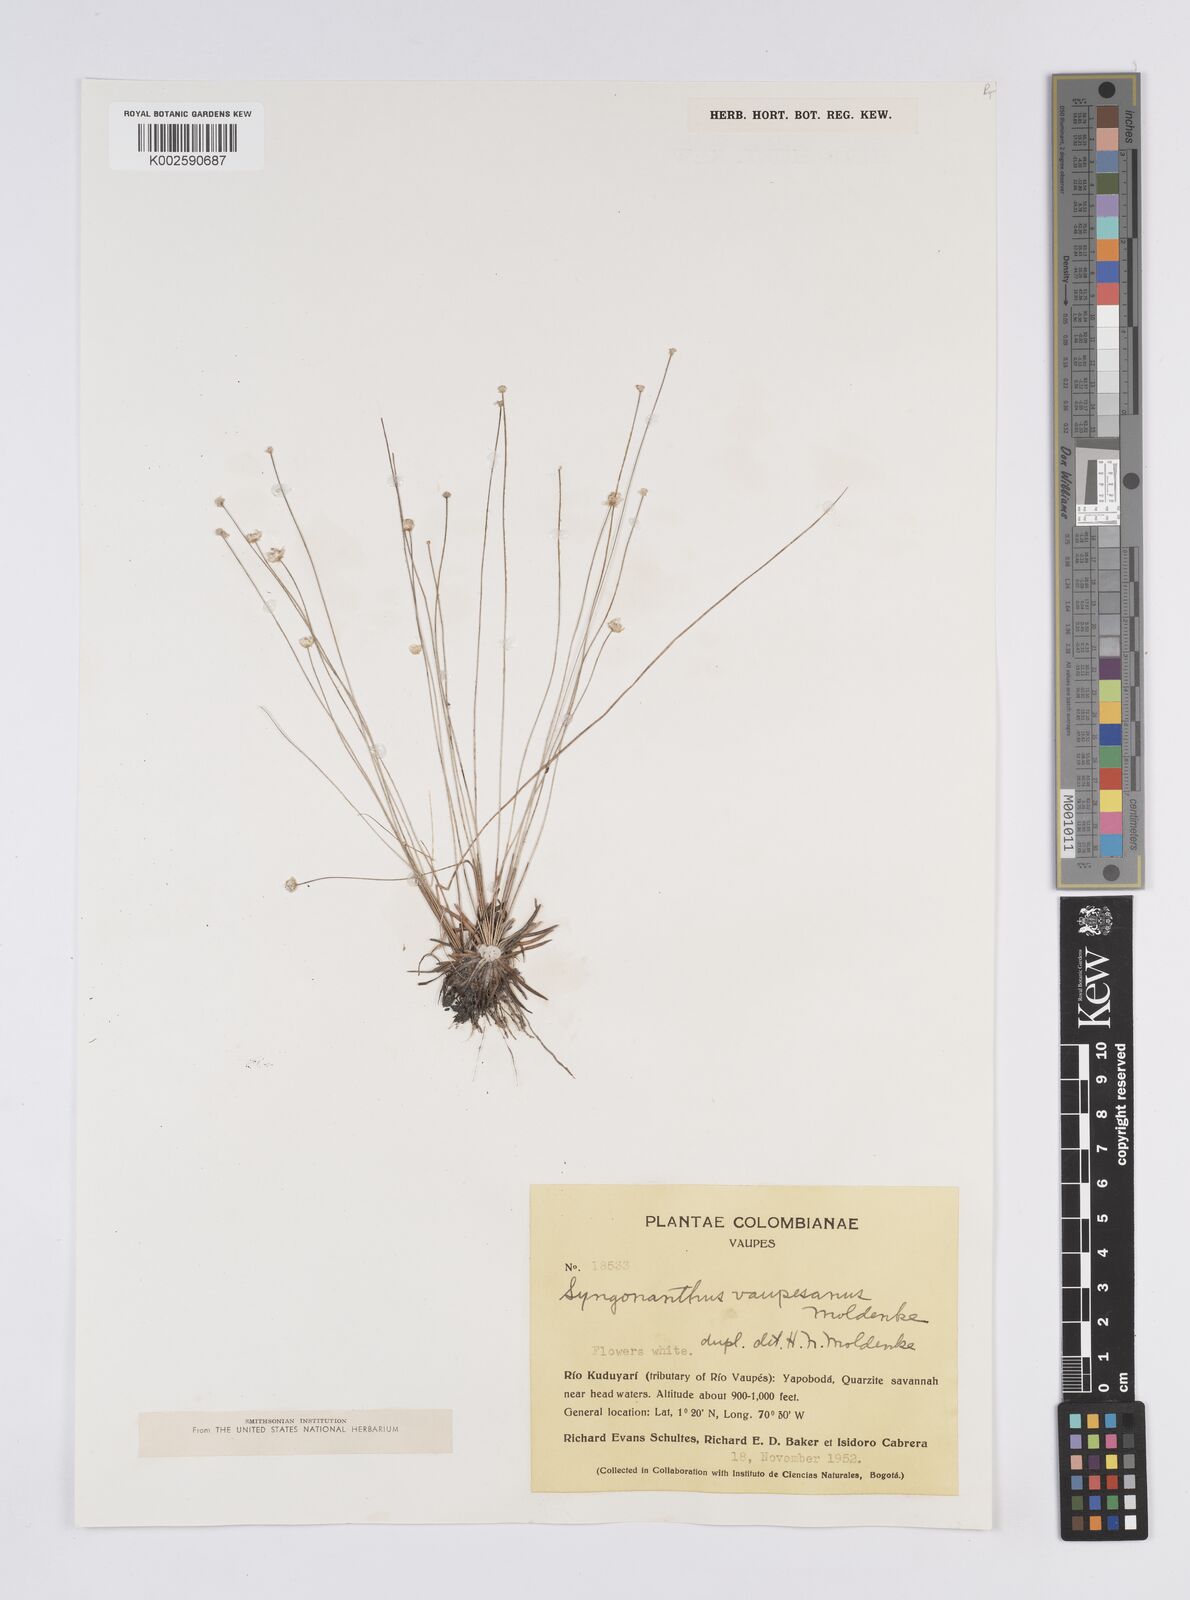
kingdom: Plantae
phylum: Tracheophyta
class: Liliopsida
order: Poales
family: Eriocaulaceae
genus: Syngonanthus
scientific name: Syngonanthus tenuis
